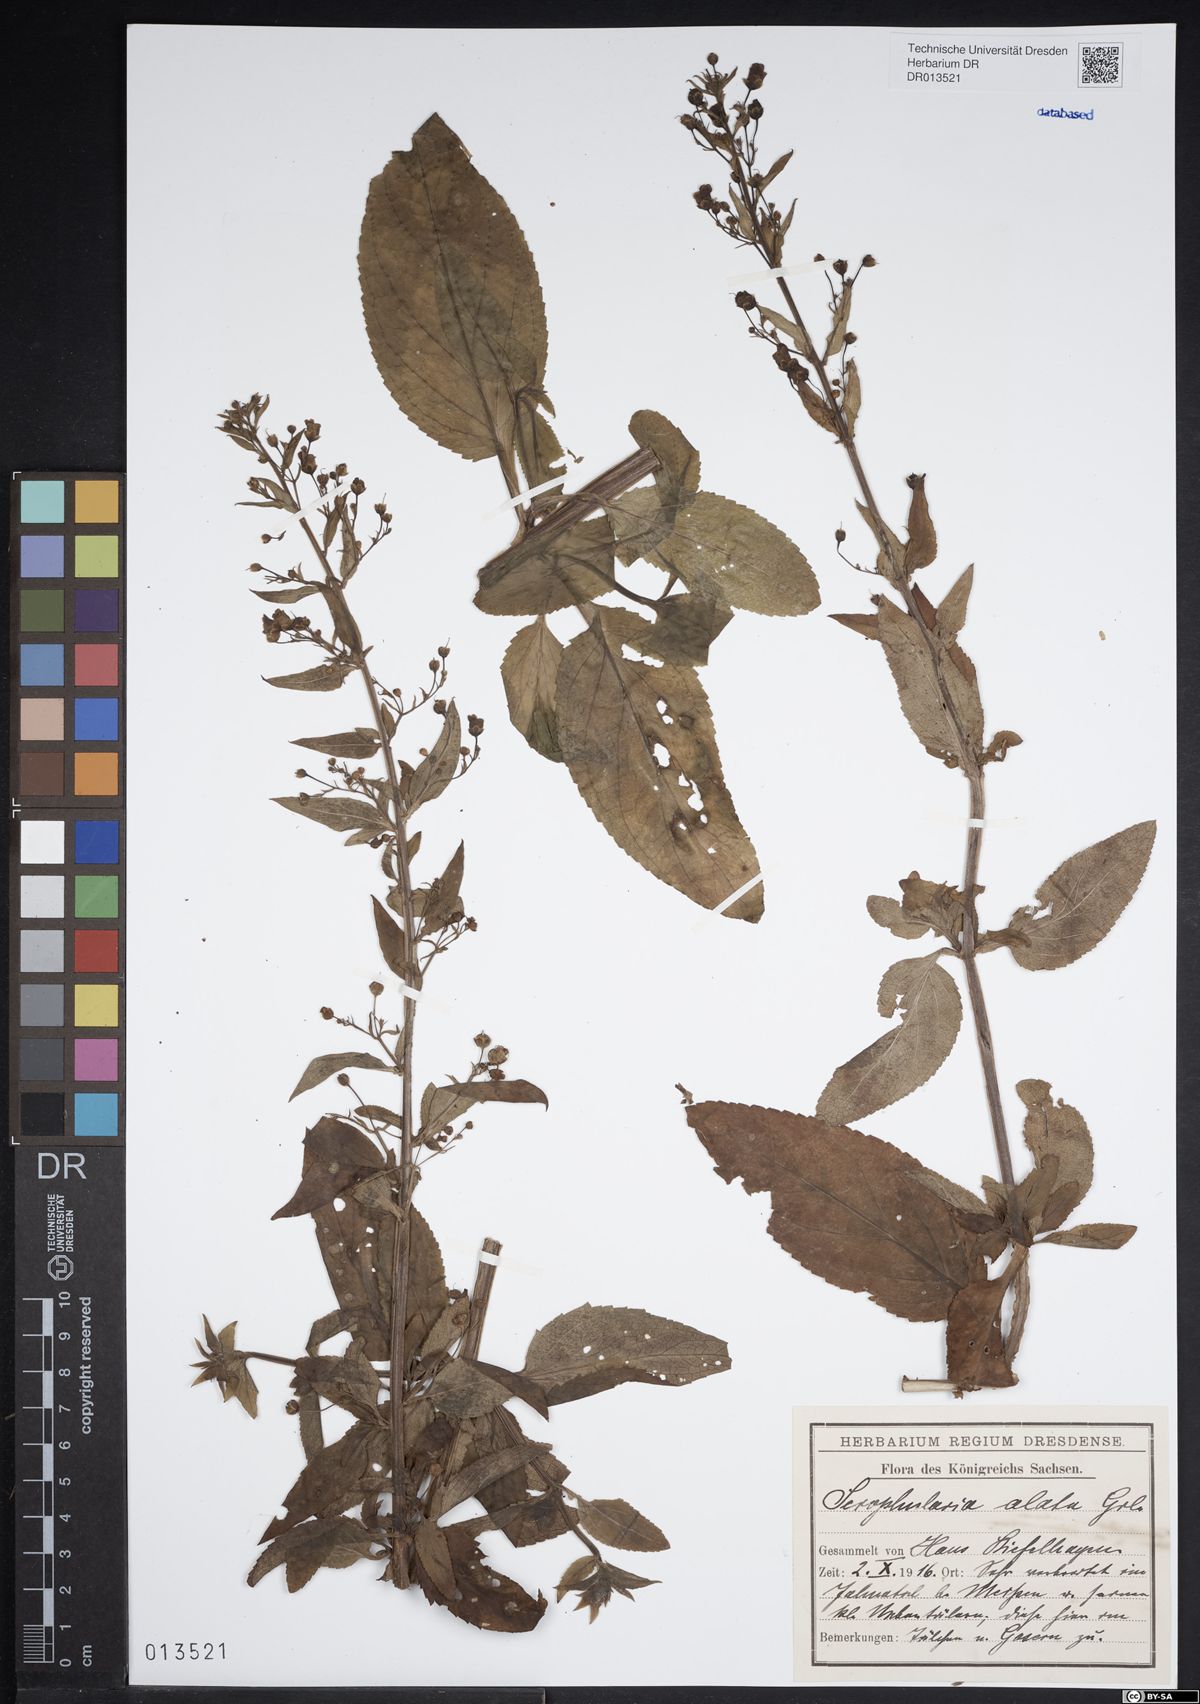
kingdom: Plantae
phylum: Tracheophyta
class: Magnoliopsida
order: Lamiales
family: Scrophulariaceae
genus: Scrophularia
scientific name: Scrophularia umbrosa
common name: Green figwort
